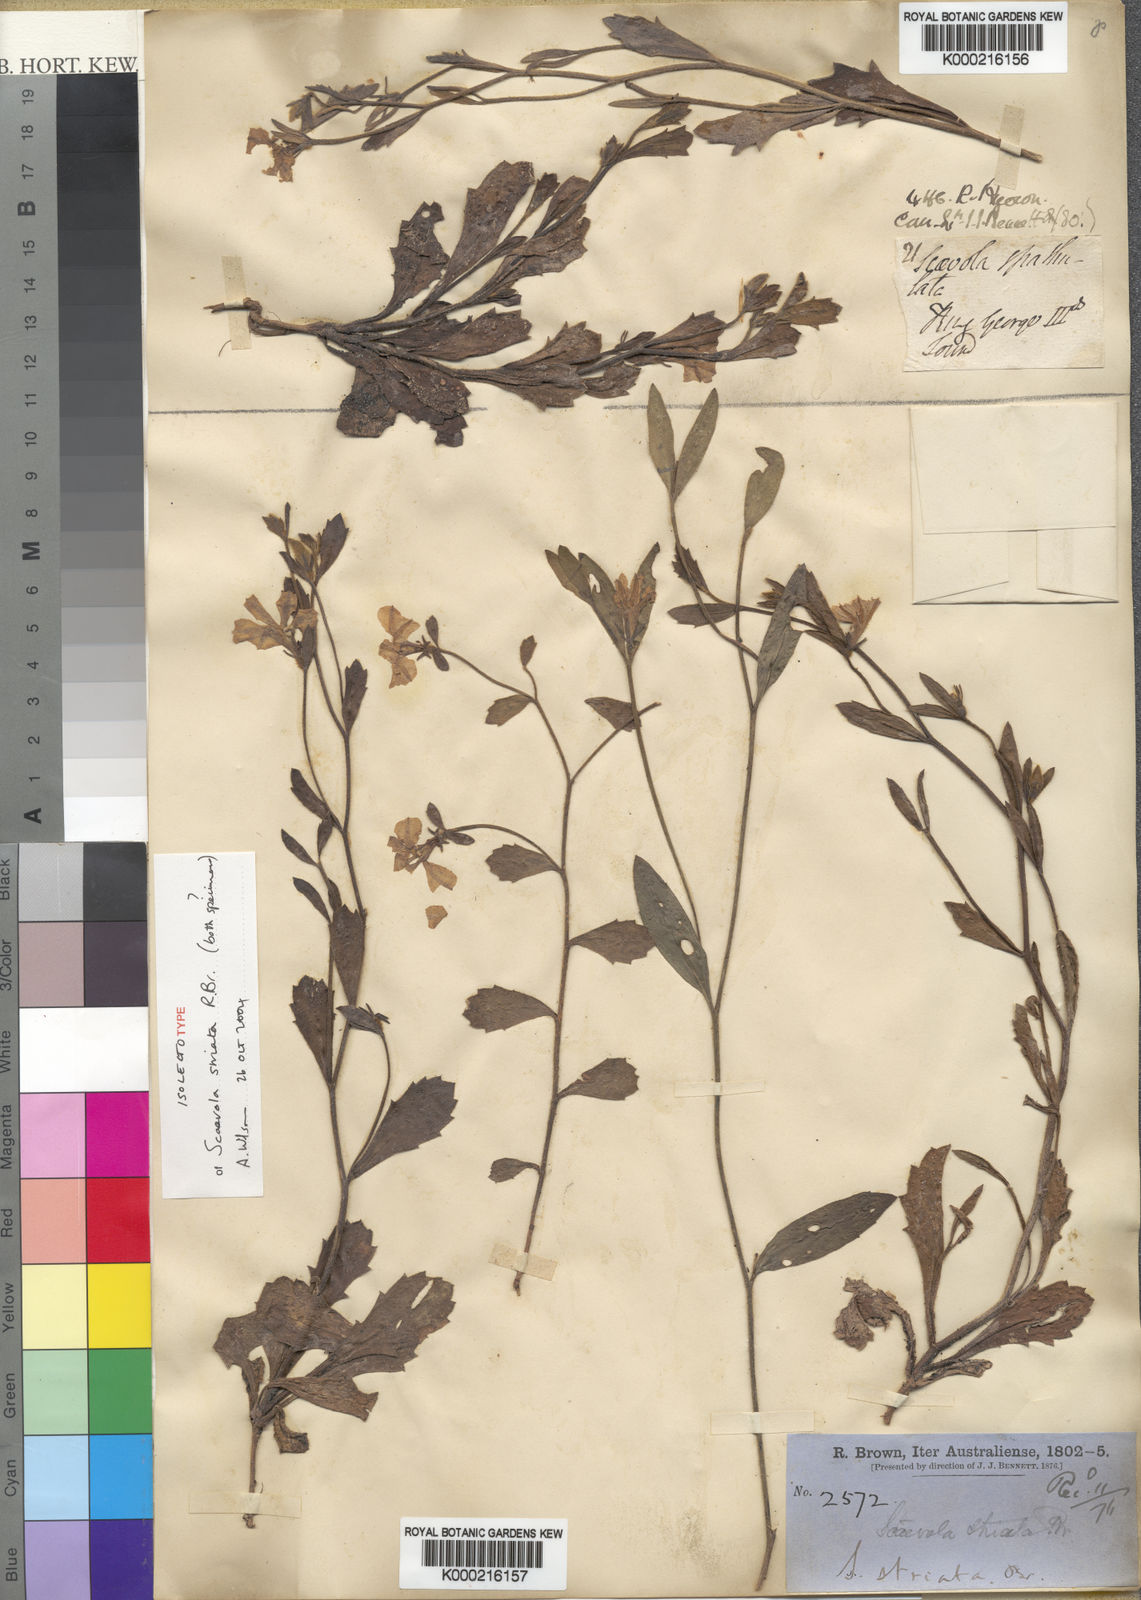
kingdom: Plantae
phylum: Tracheophyta
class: Magnoliopsida
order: Asterales
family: Goodeniaceae
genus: Scaevola
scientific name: Scaevola striata
